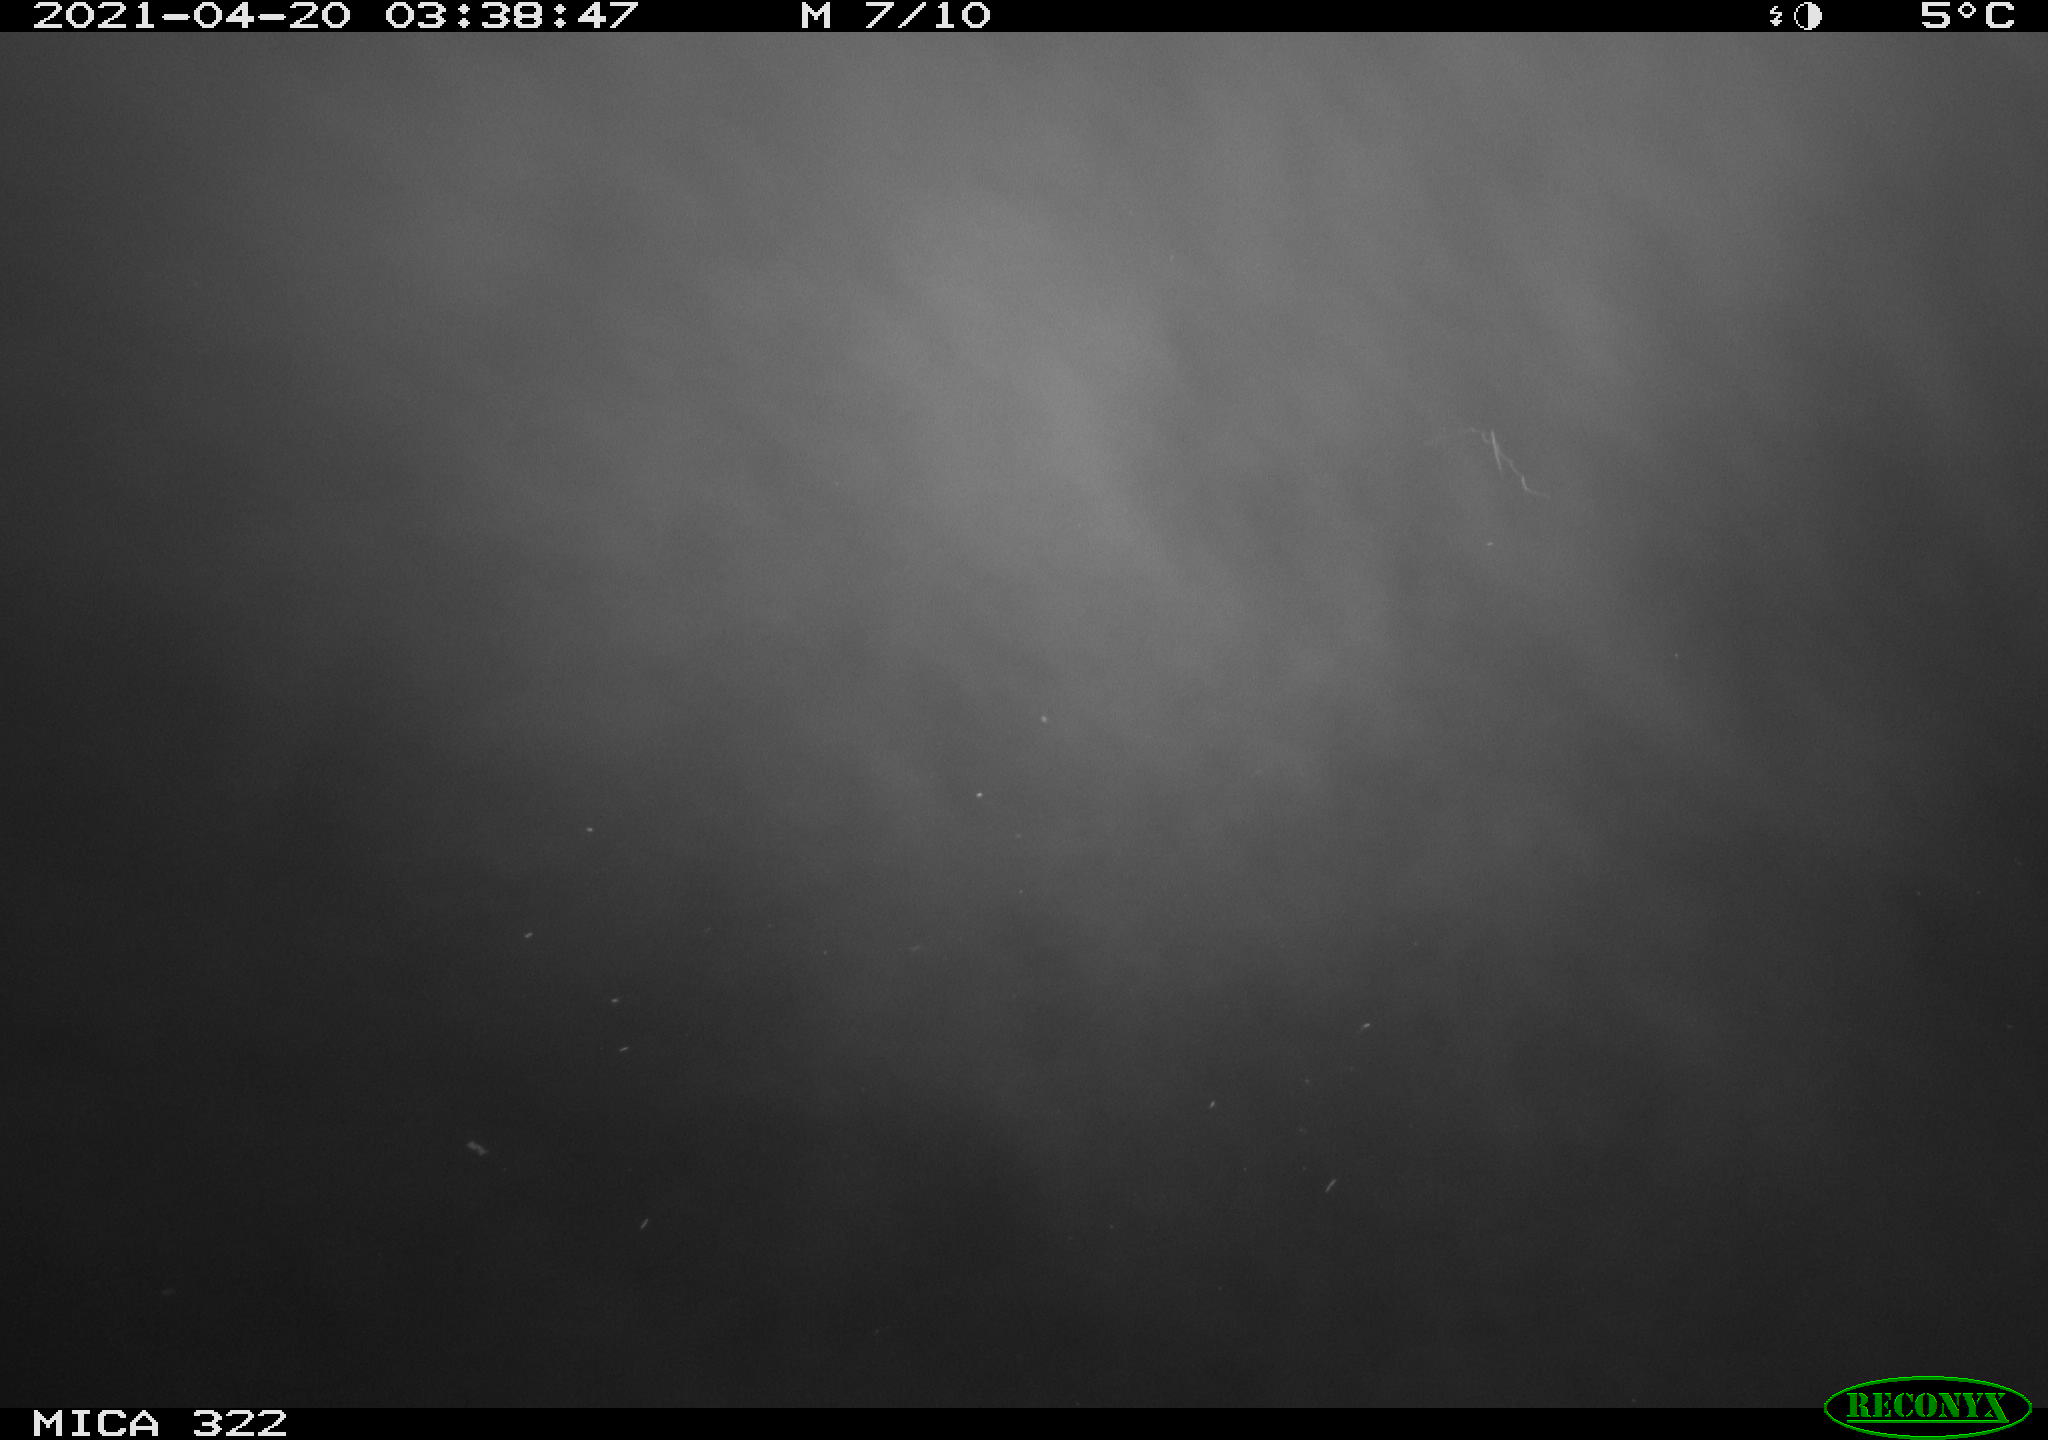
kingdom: Animalia
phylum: Chordata
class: Aves
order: Anseriformes
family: Anatidae
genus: Anas
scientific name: Anas platyrhynchos
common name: Mallard
